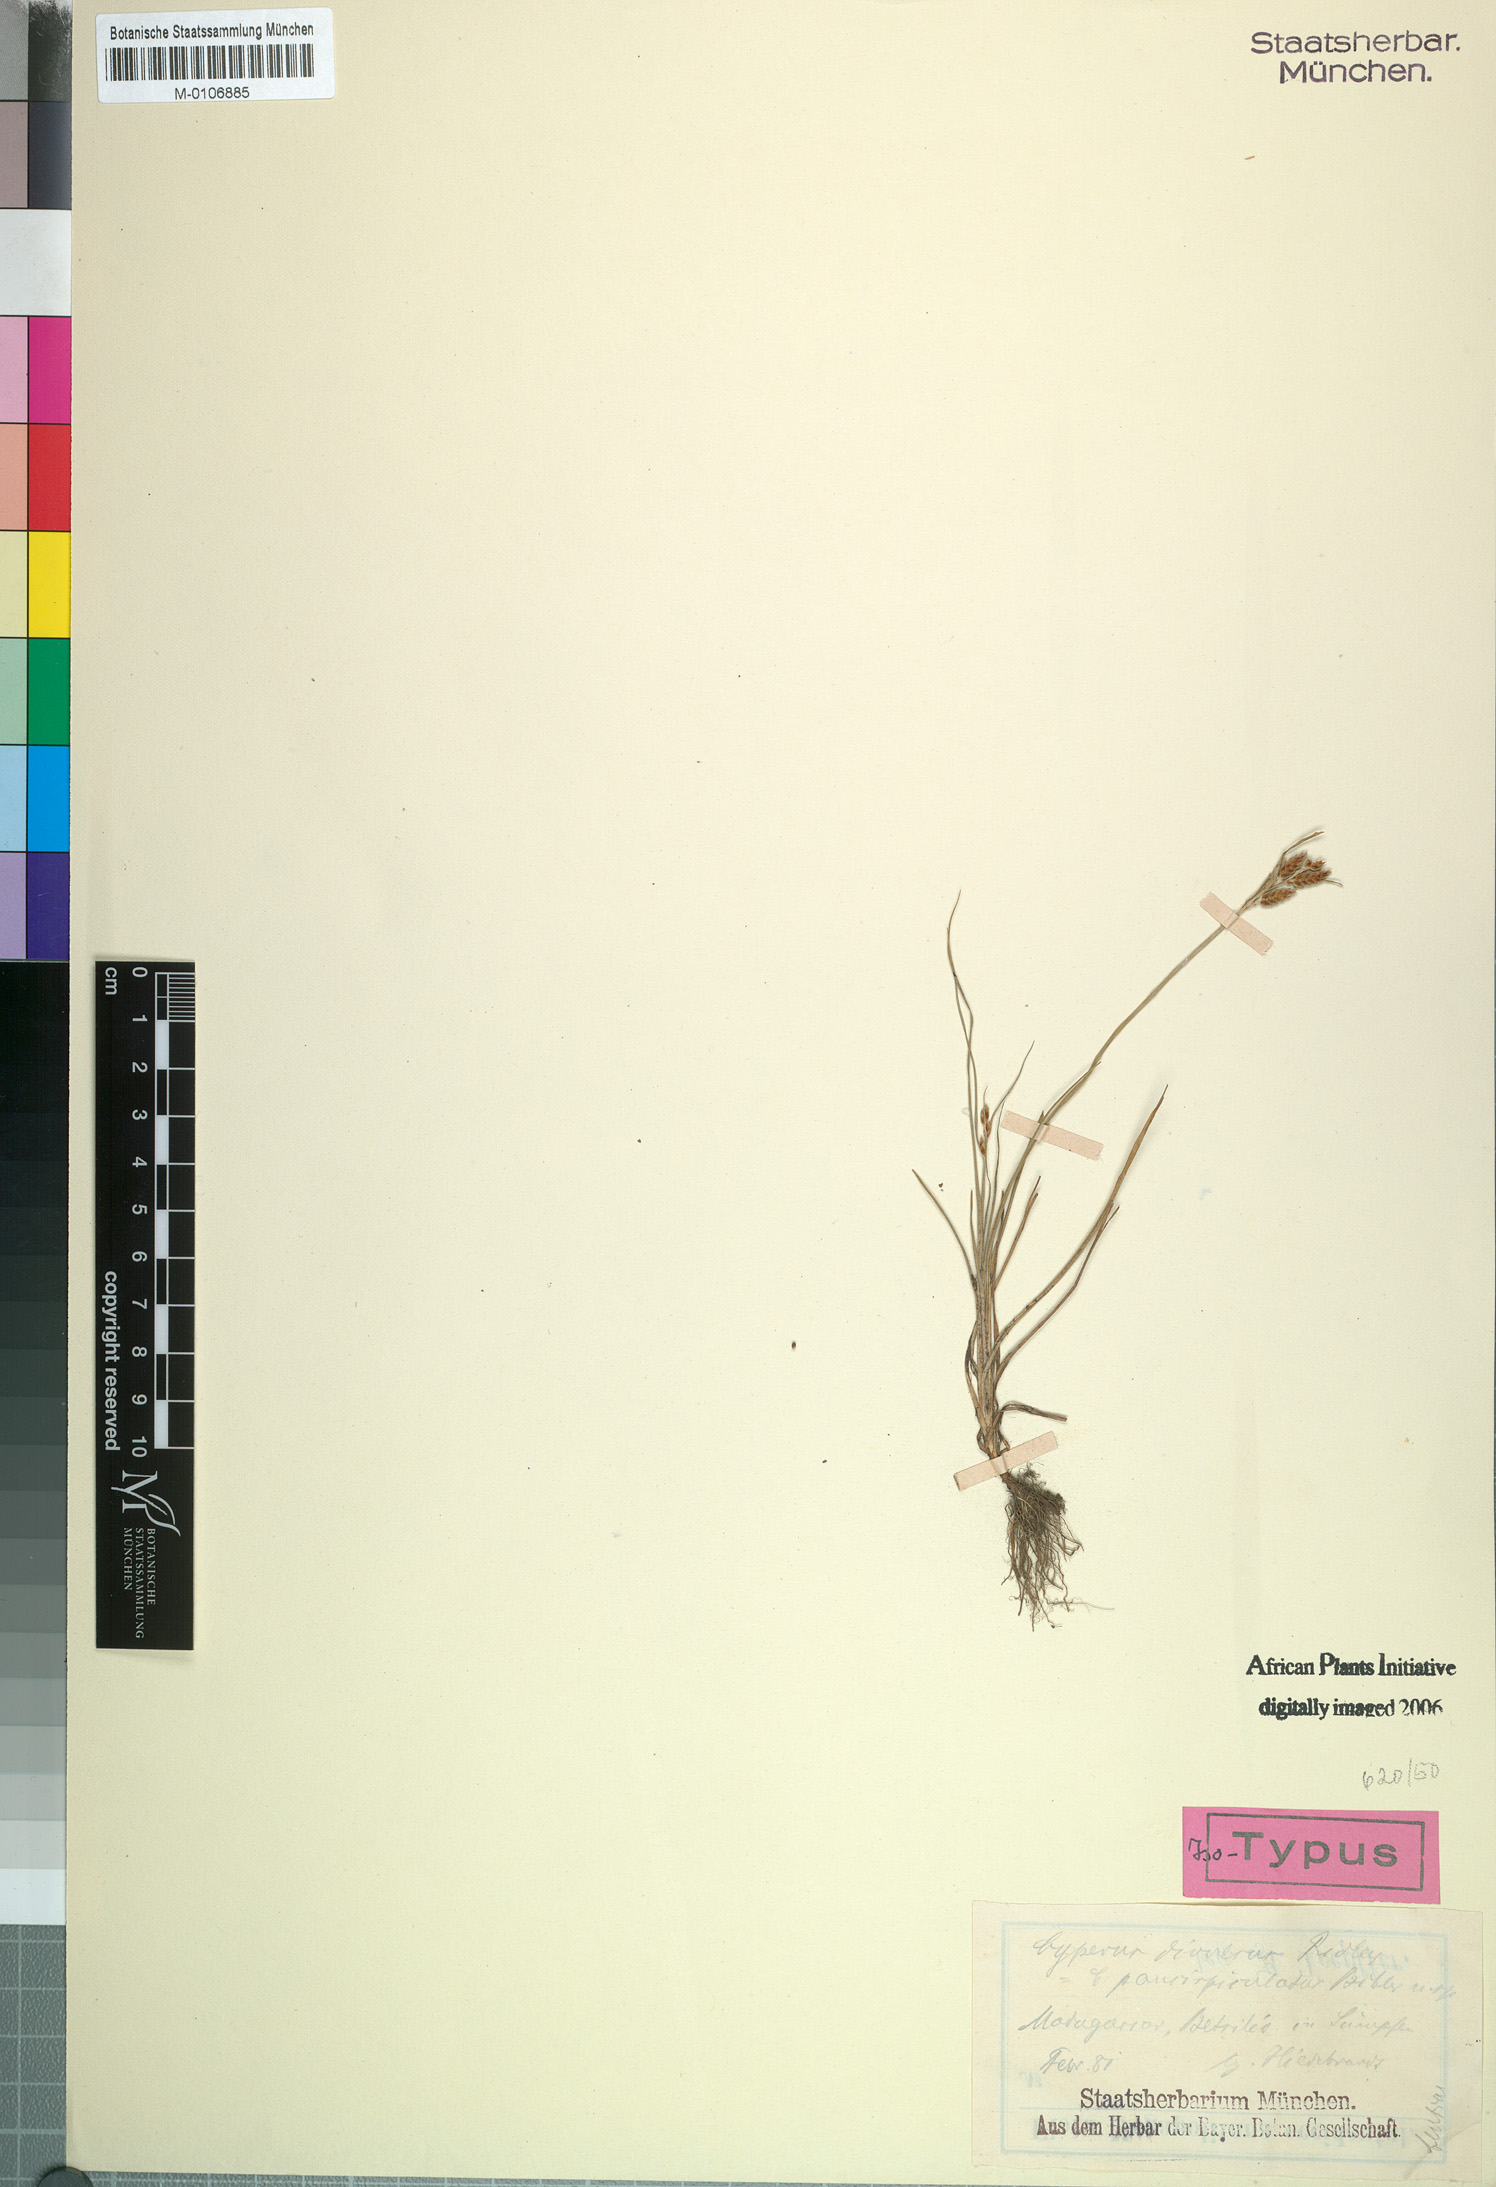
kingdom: Plantae
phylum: Tracheophyta
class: Liliopsida
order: Poales
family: Cyperaceae
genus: Cyperus
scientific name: Cyperus divulsus
